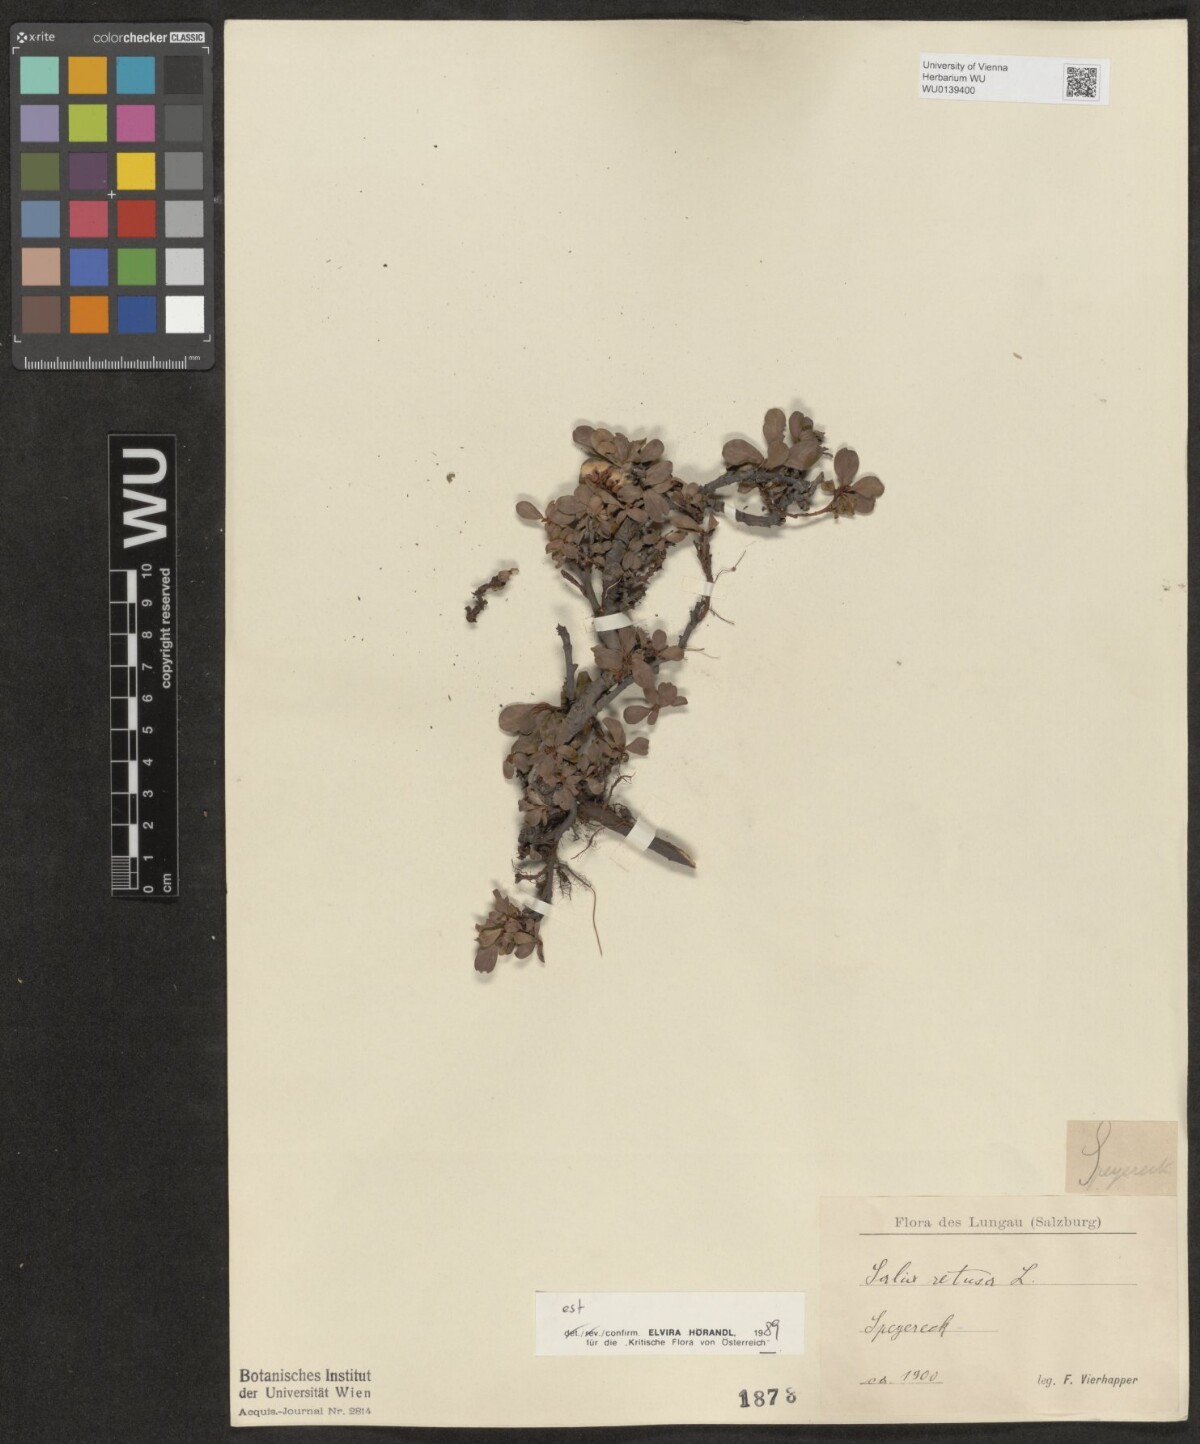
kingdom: Plantae
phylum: Tracheophyta
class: Magnoliopsida
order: Malpighiales
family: Salicaceae
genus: Salix
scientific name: Salix retusa
